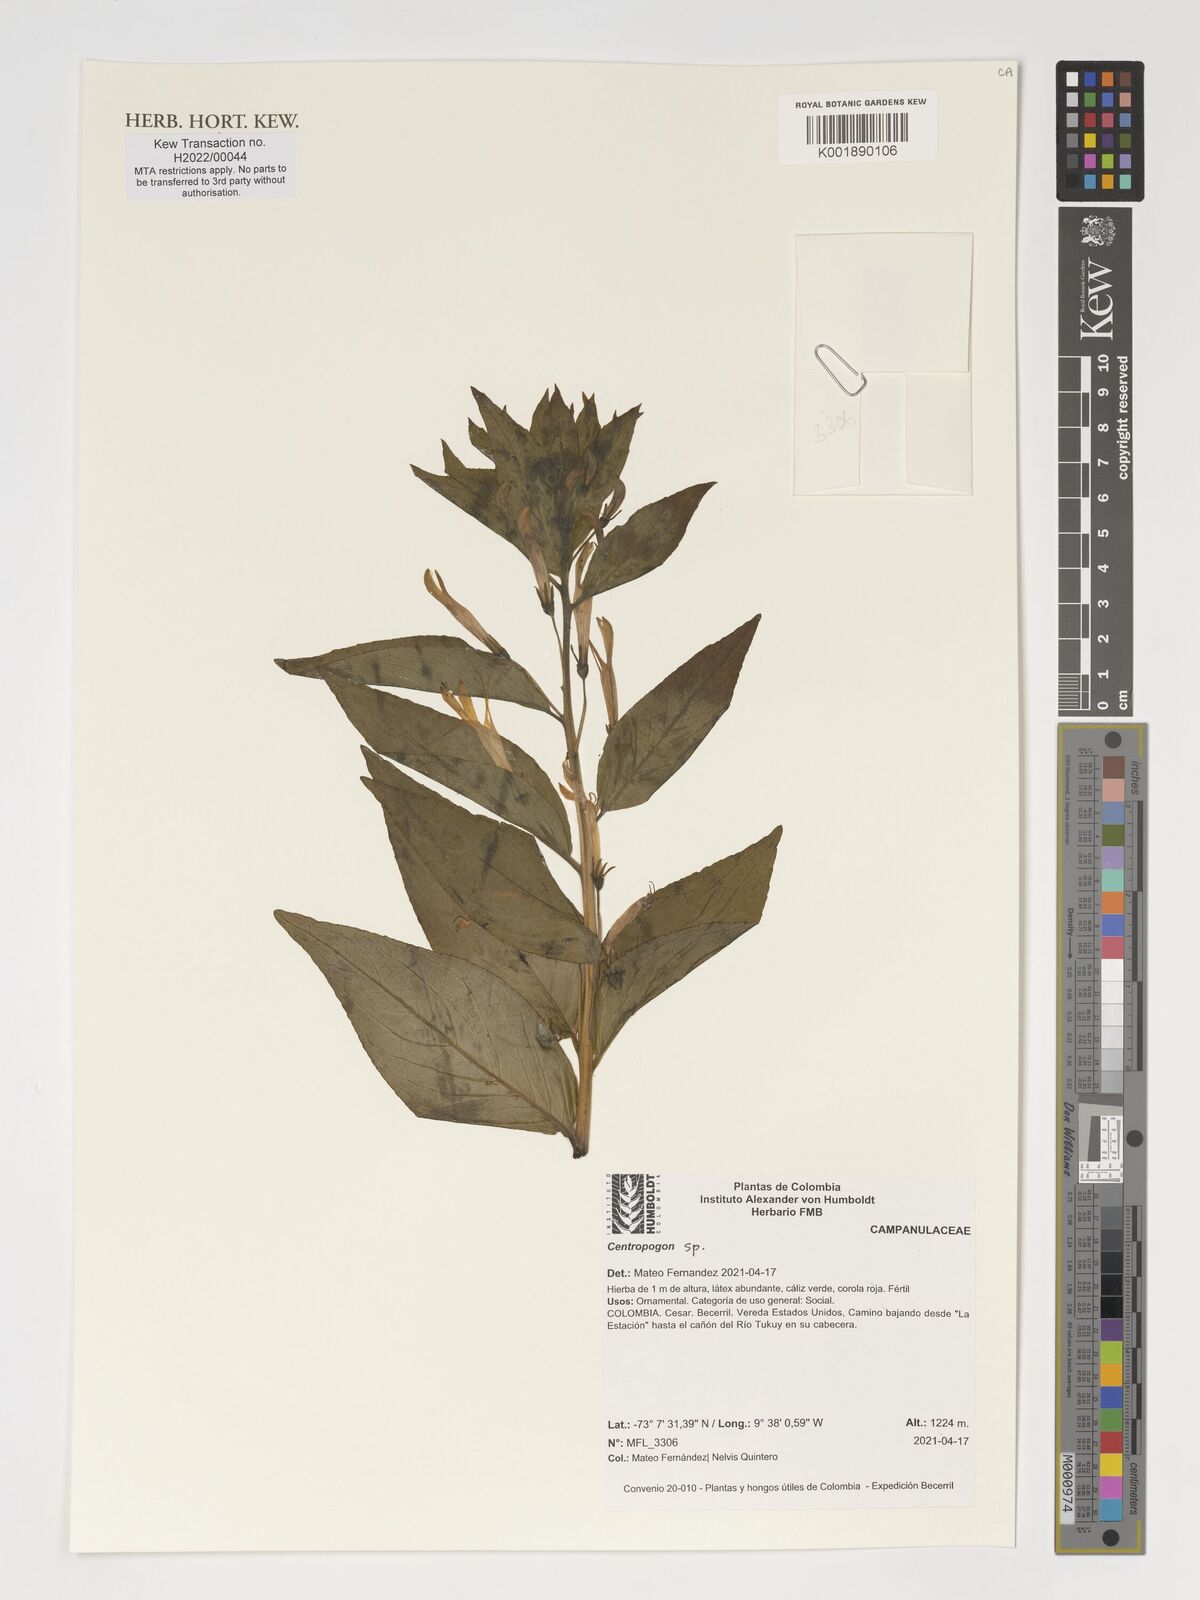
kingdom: Plantae
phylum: Tracheophyta
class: Magnoliopsida
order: Asterales
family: Campanulaceae
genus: Centropogon
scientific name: Centropogon
